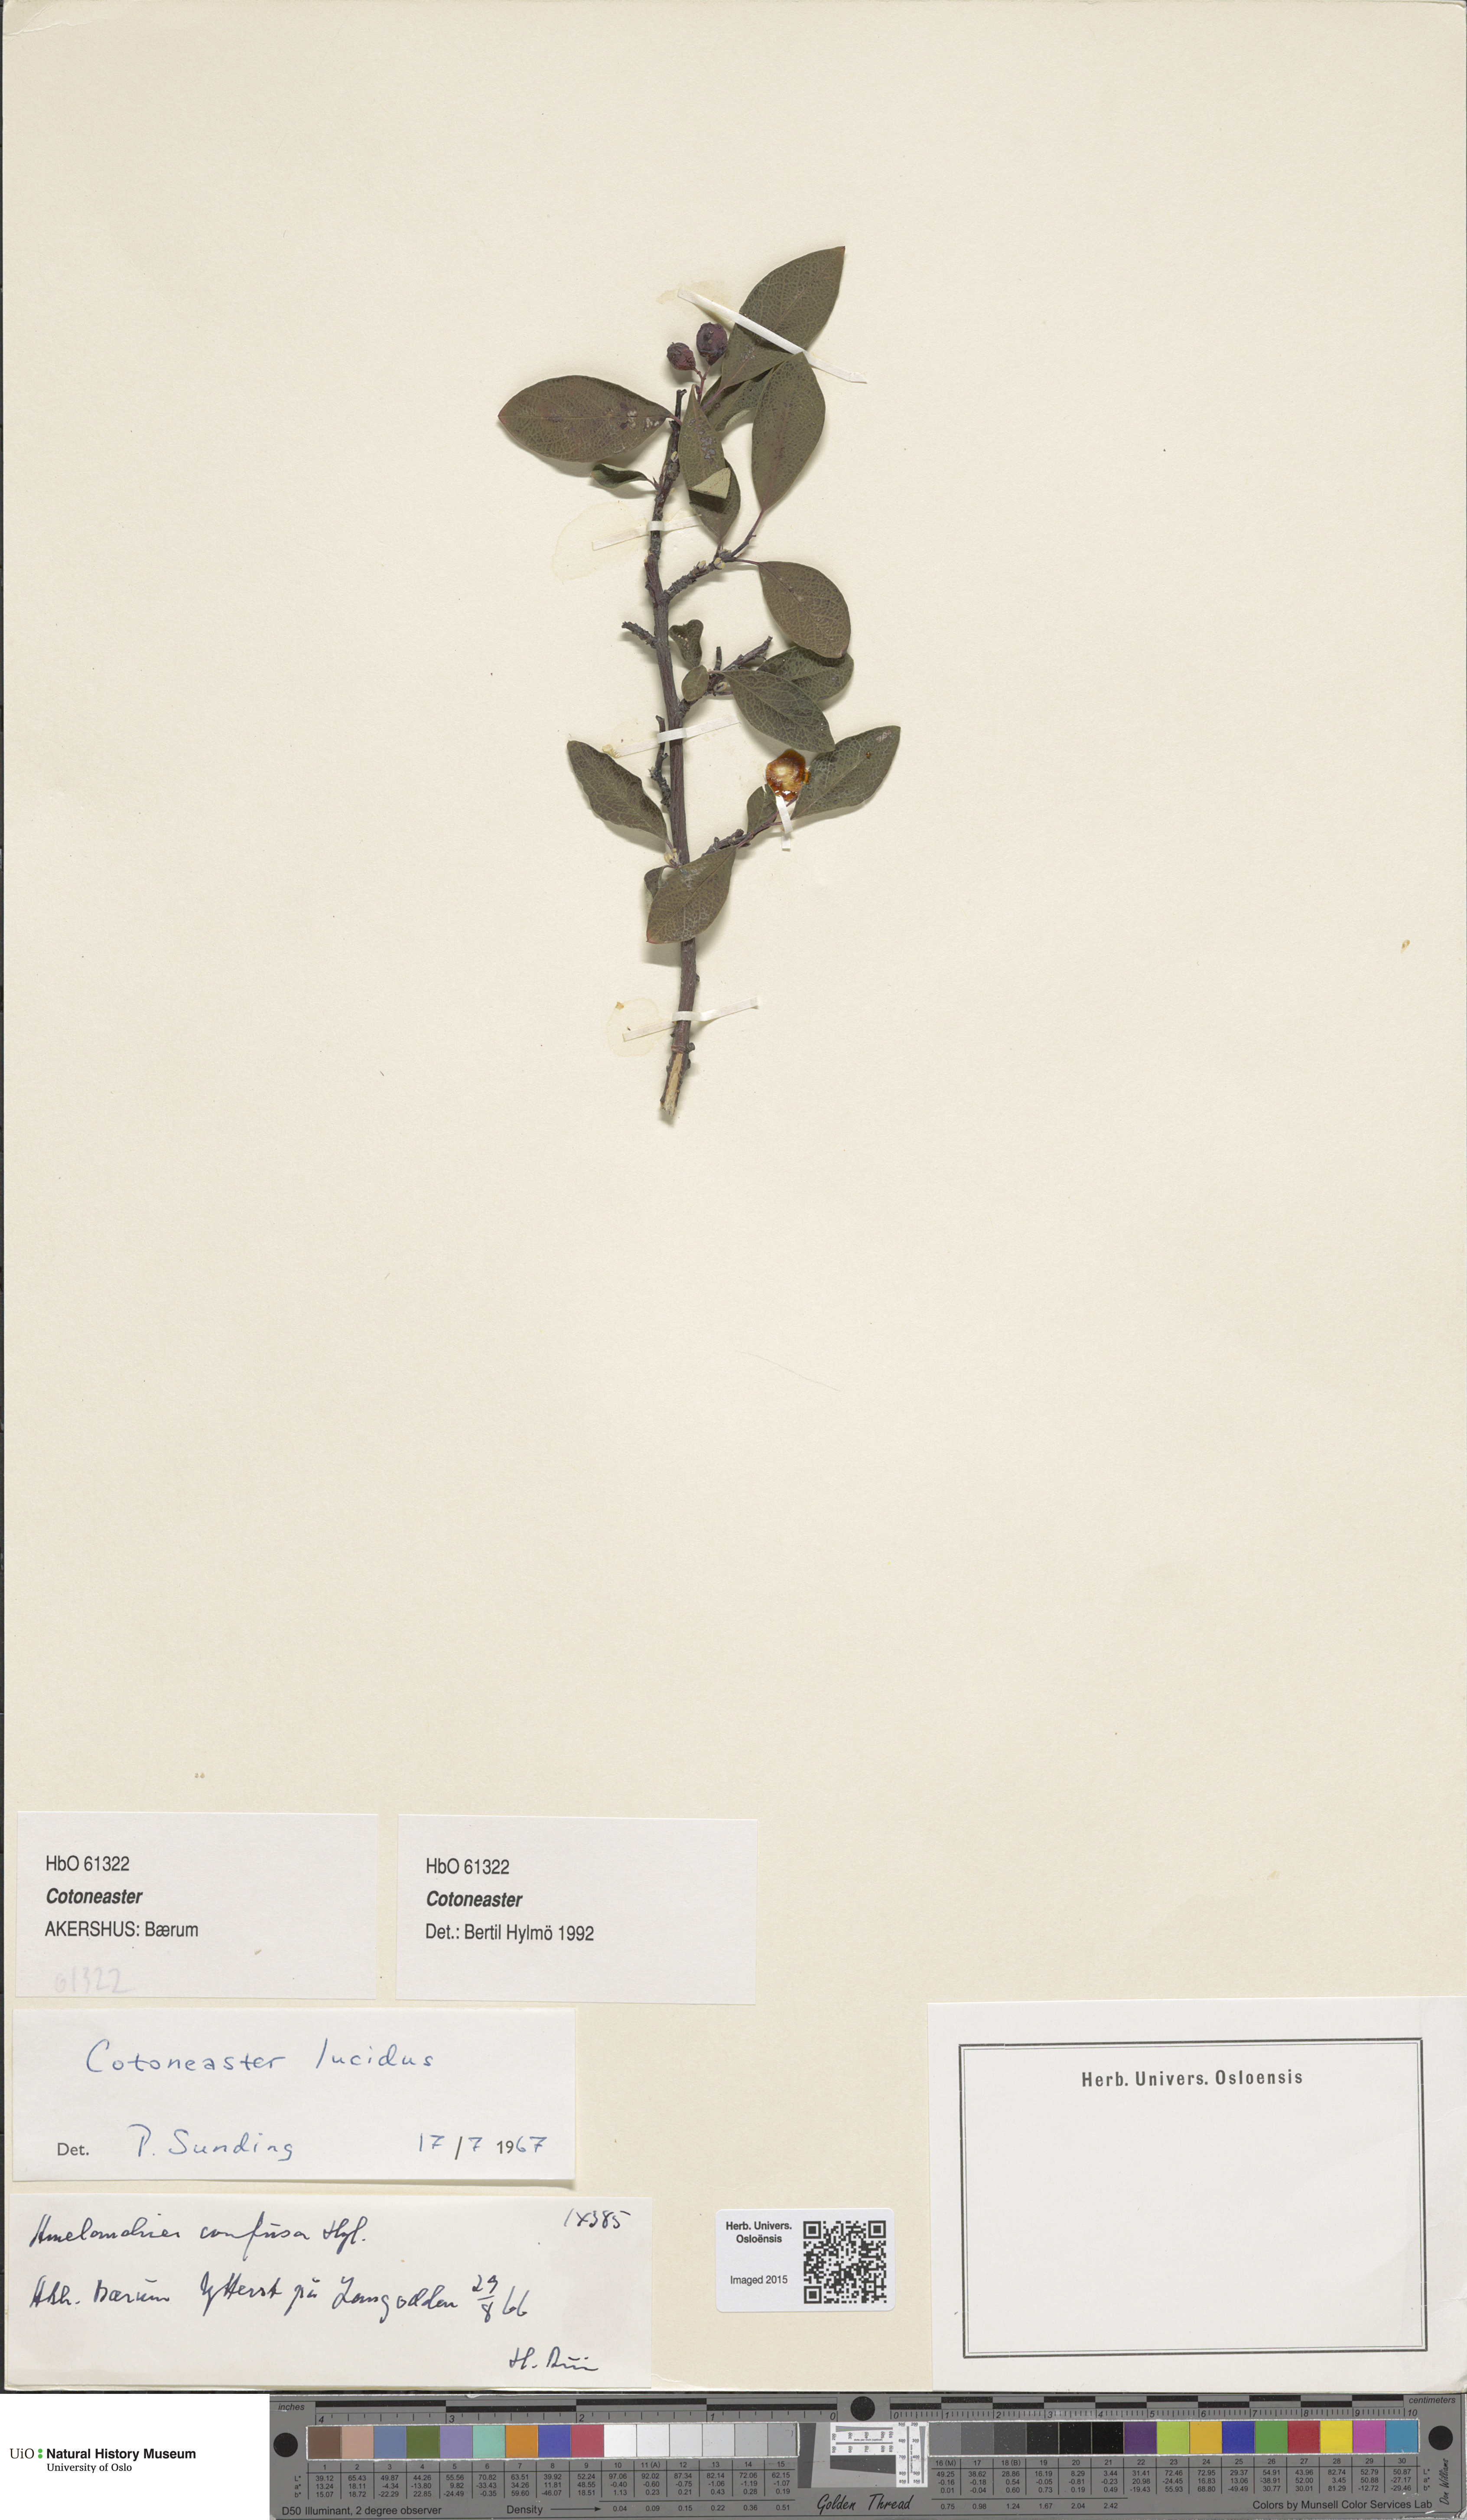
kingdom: Plantae
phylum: Tracheophyta
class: Magnoliopsida
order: Rosales
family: Rosaceae
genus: Cotoneaster
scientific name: Cotoneaster
